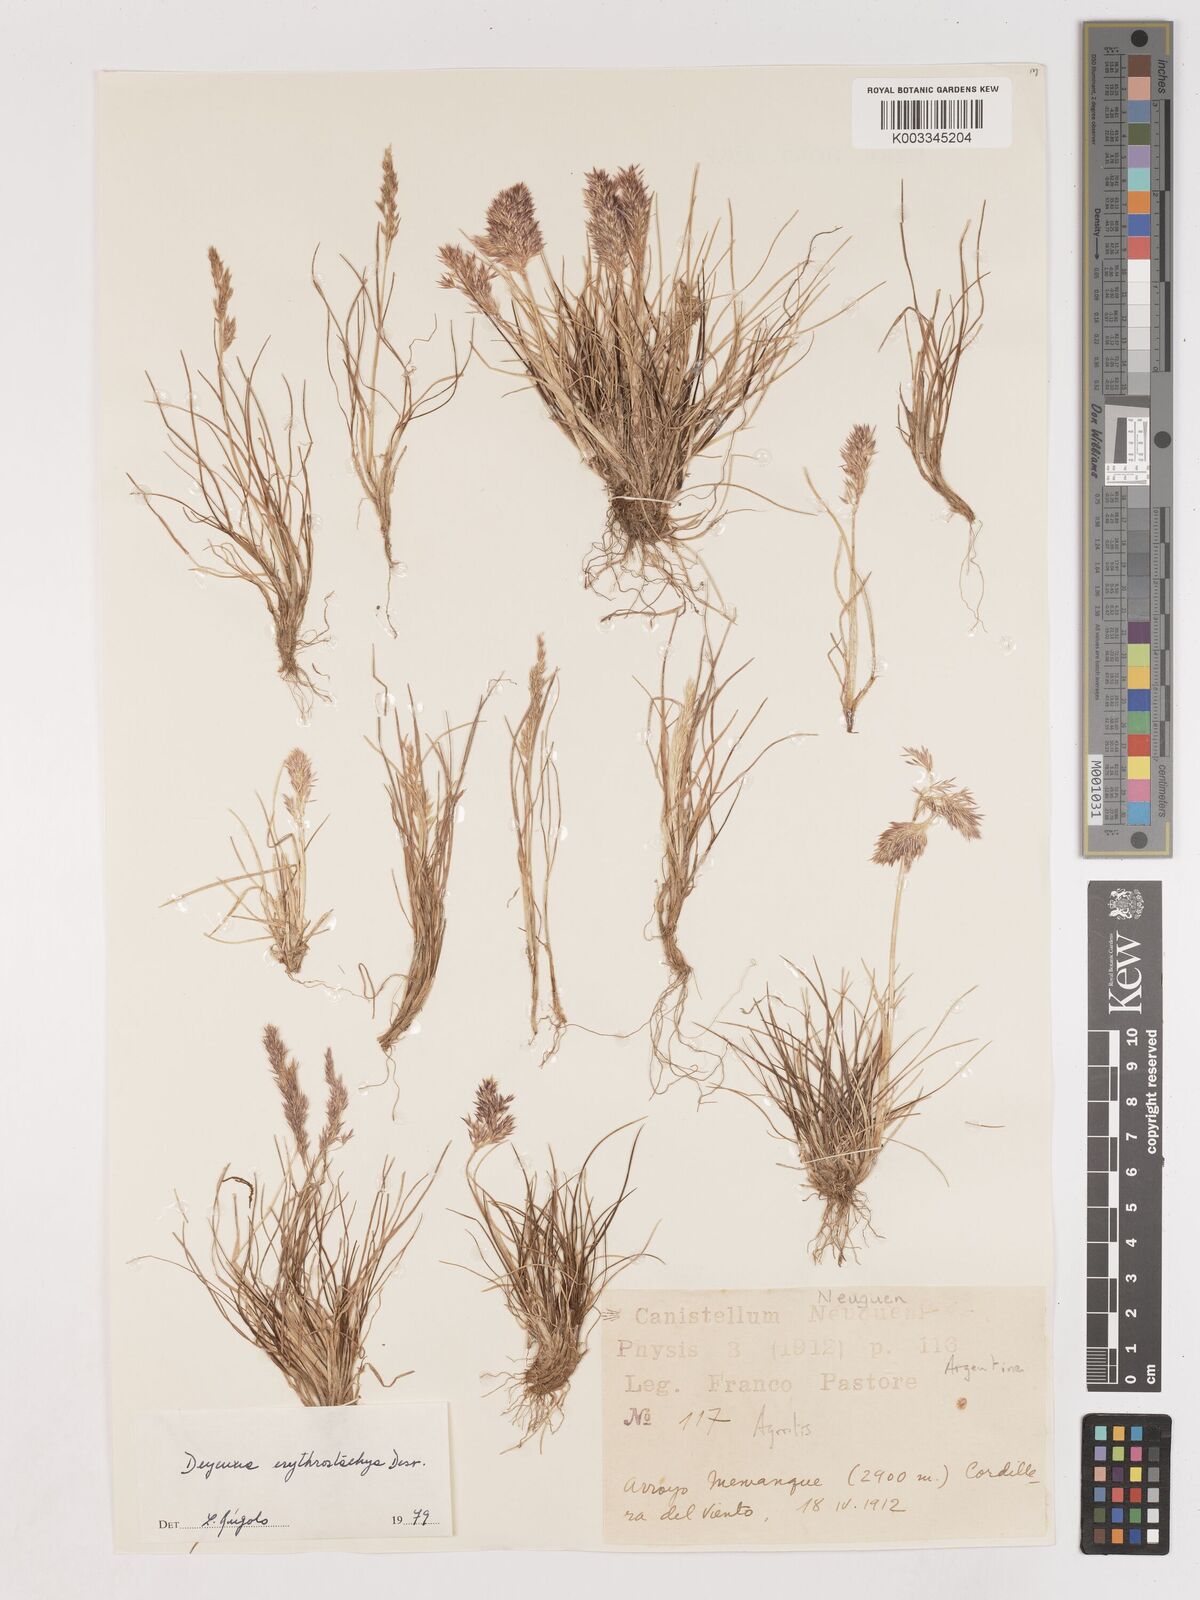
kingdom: Plantae
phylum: Tracheophyta
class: Liliopsida
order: Poales
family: Poaceae
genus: Calamagrostis
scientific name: Calamagrostis
